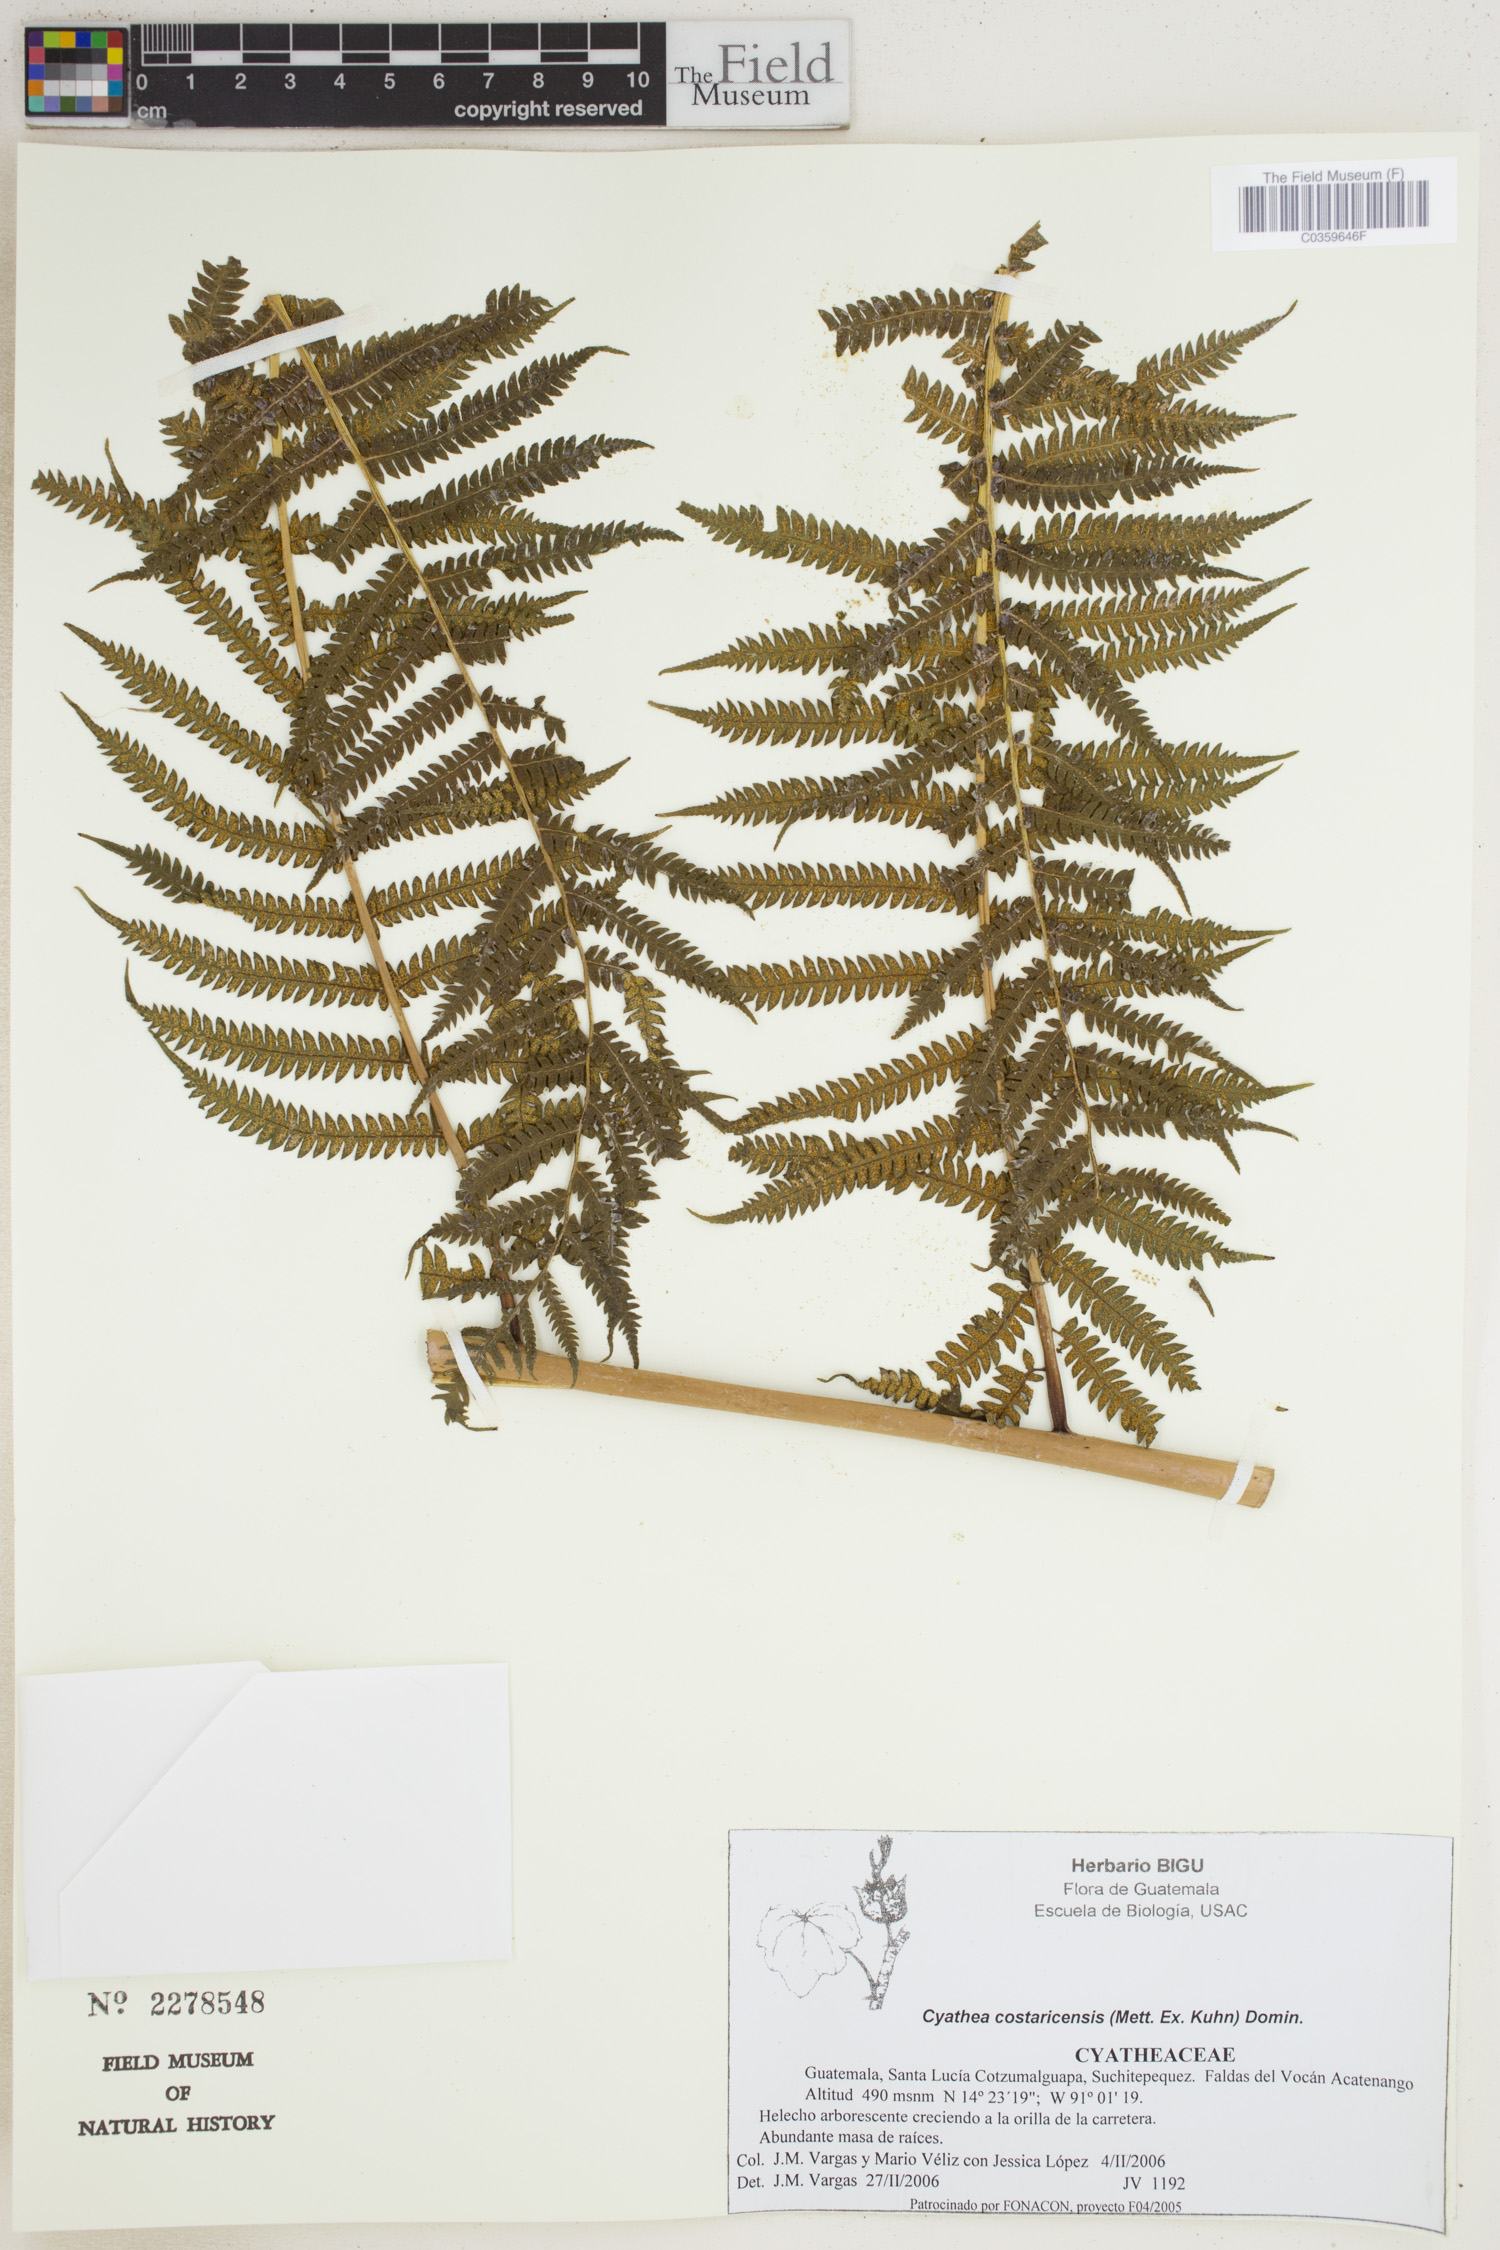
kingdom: Plantae
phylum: Tracheophyta
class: Polypodiopsida
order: Cyatheales
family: Cyatheaceae
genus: Cyathea
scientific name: Cyathea costaricensis
